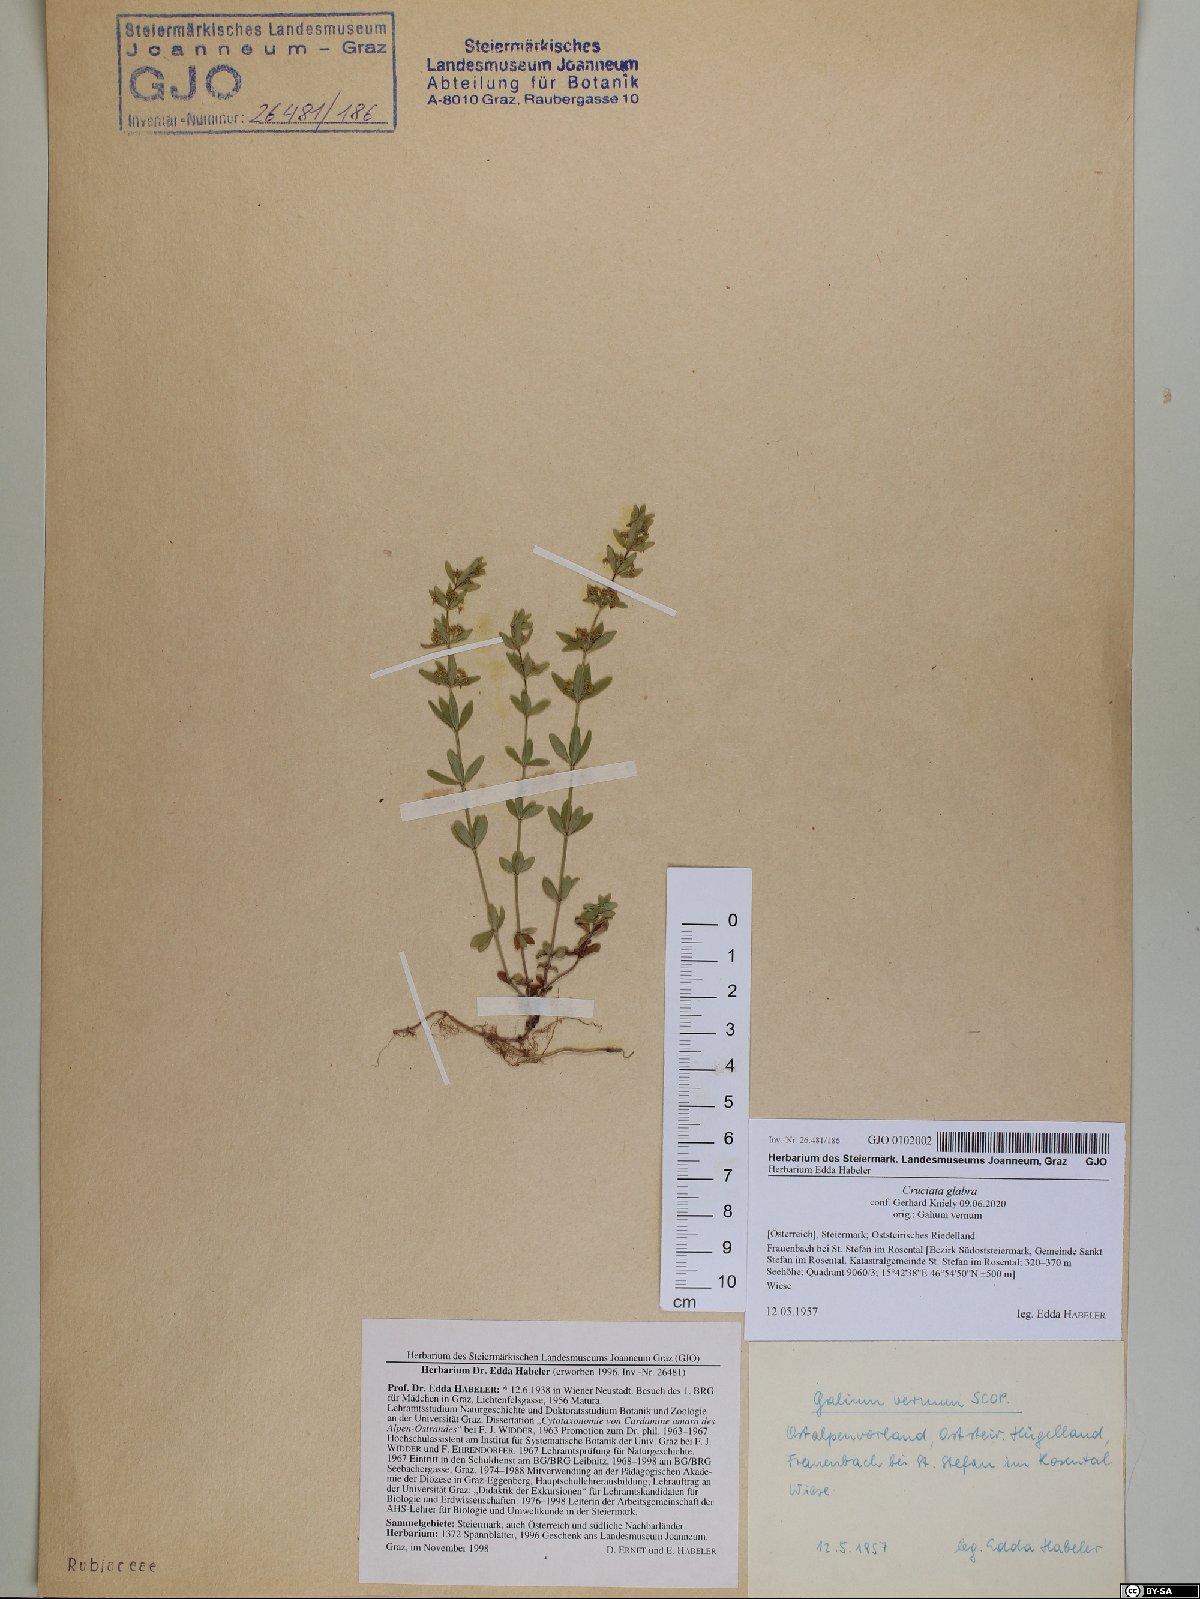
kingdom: Plantae
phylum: Tracheophyta
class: Magnoliopsida
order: Gentianales
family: Rubiaceae
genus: Cruciata
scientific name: Cruciata glabra
